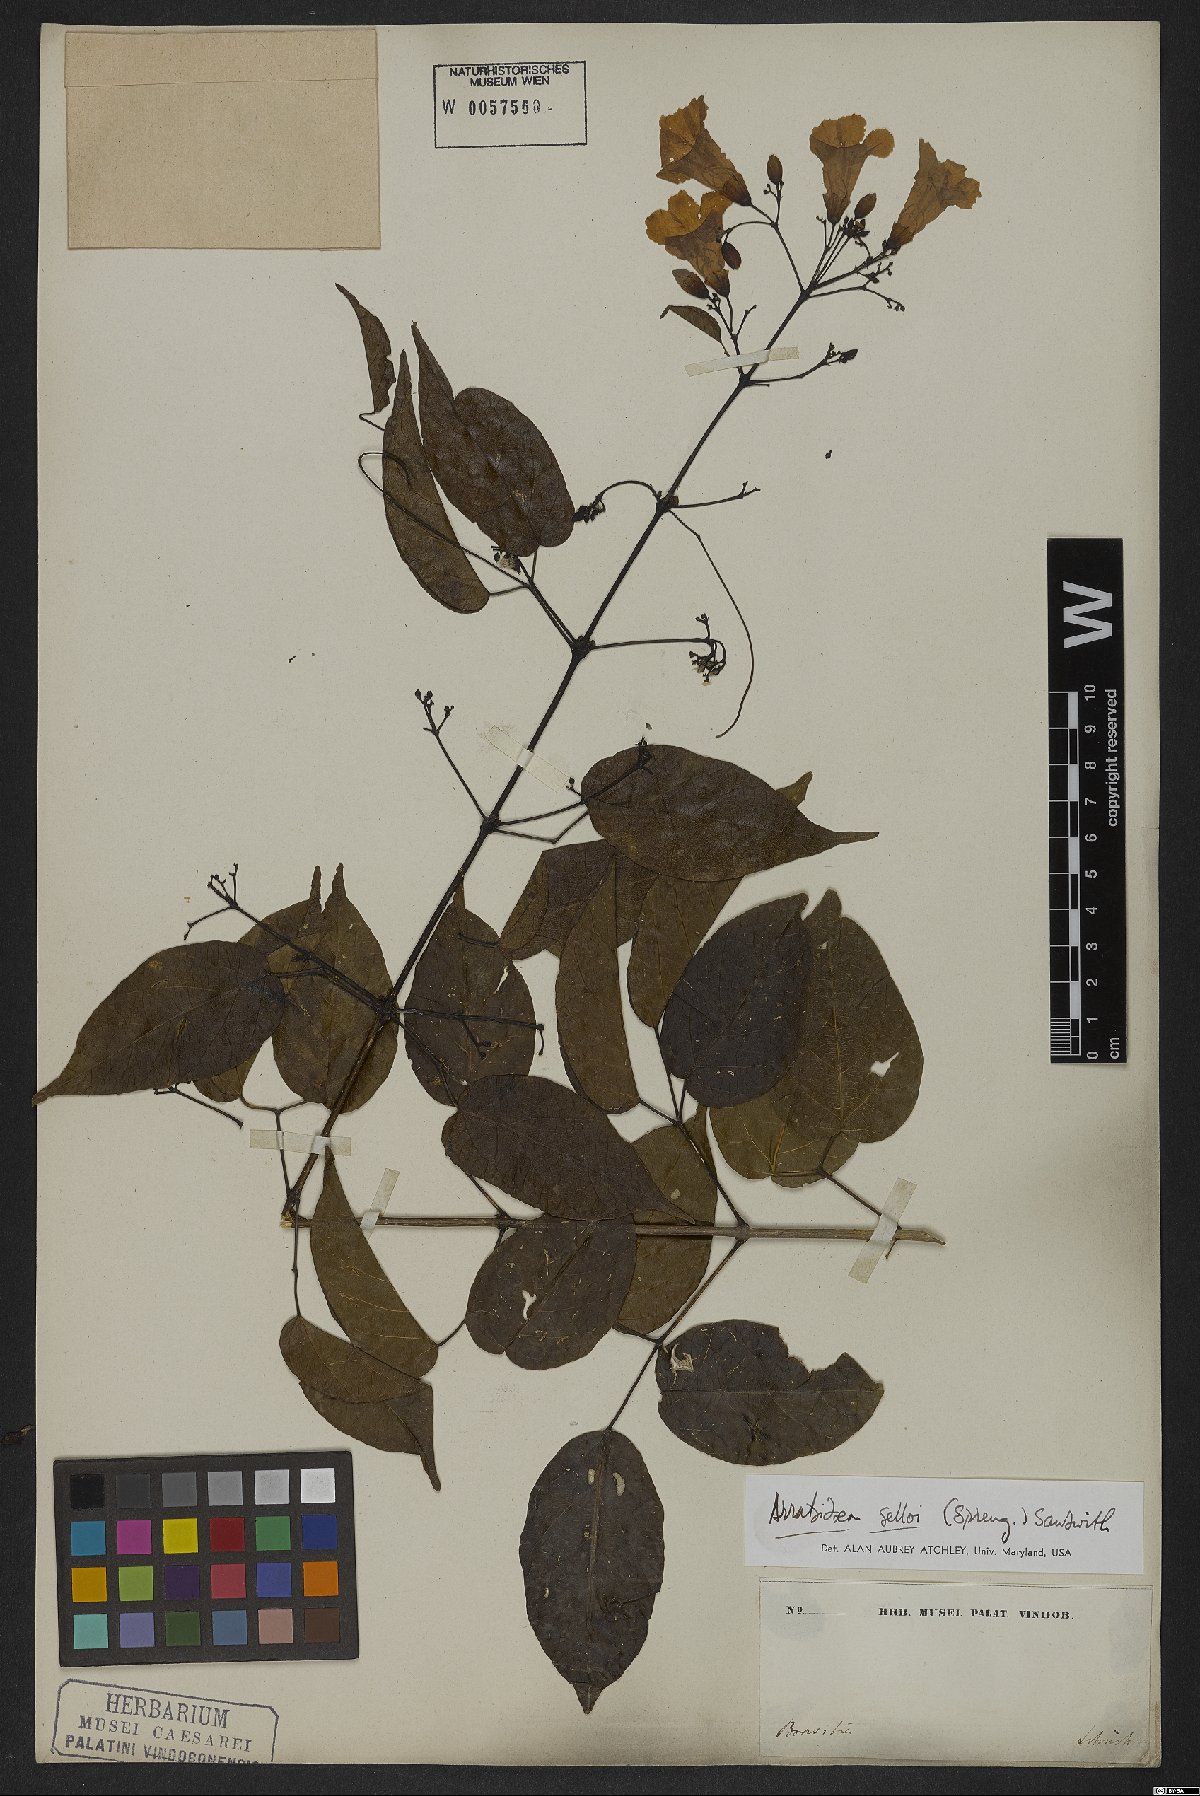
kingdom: Plantae
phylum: Tracheophyta
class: Magnoliopsida
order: Lamiales
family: Bignoniaceae
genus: Tanaecium
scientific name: Tanaecium selloi
